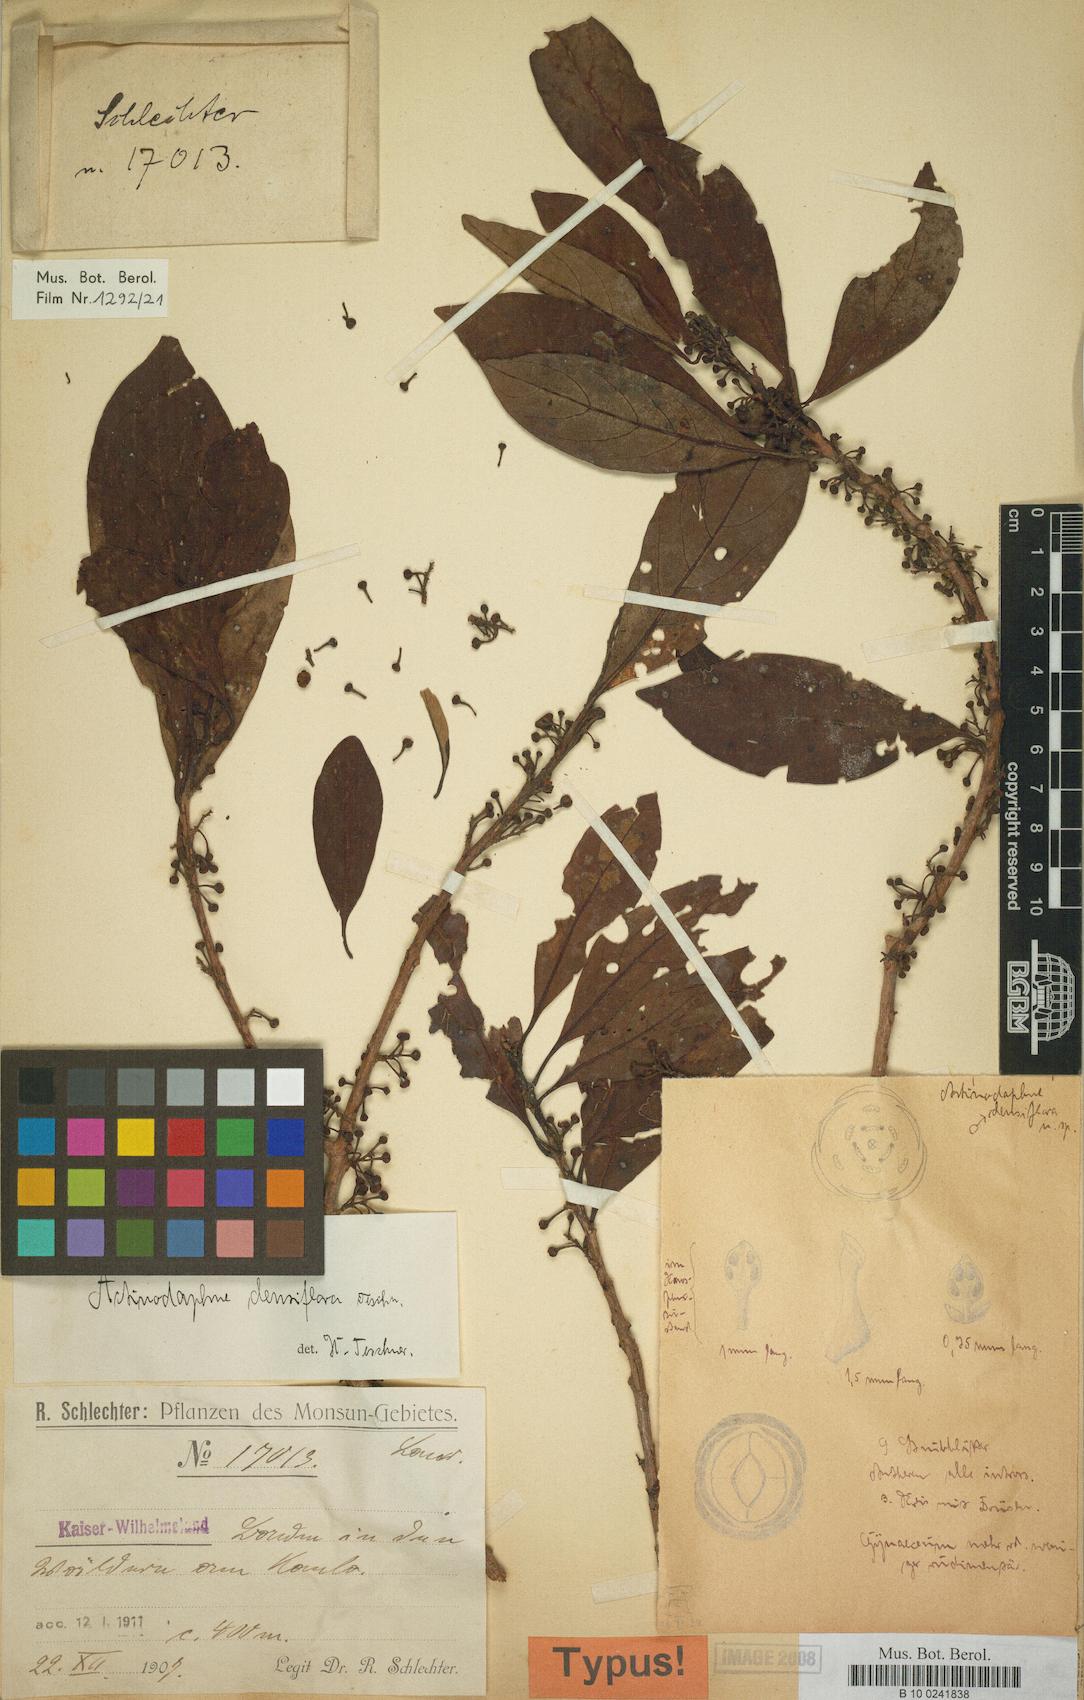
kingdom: Plantae
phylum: Tracheophyta
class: Magnoliopsida
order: Laurales
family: Lauraceae
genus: Litsea
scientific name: Litsea densiflora
